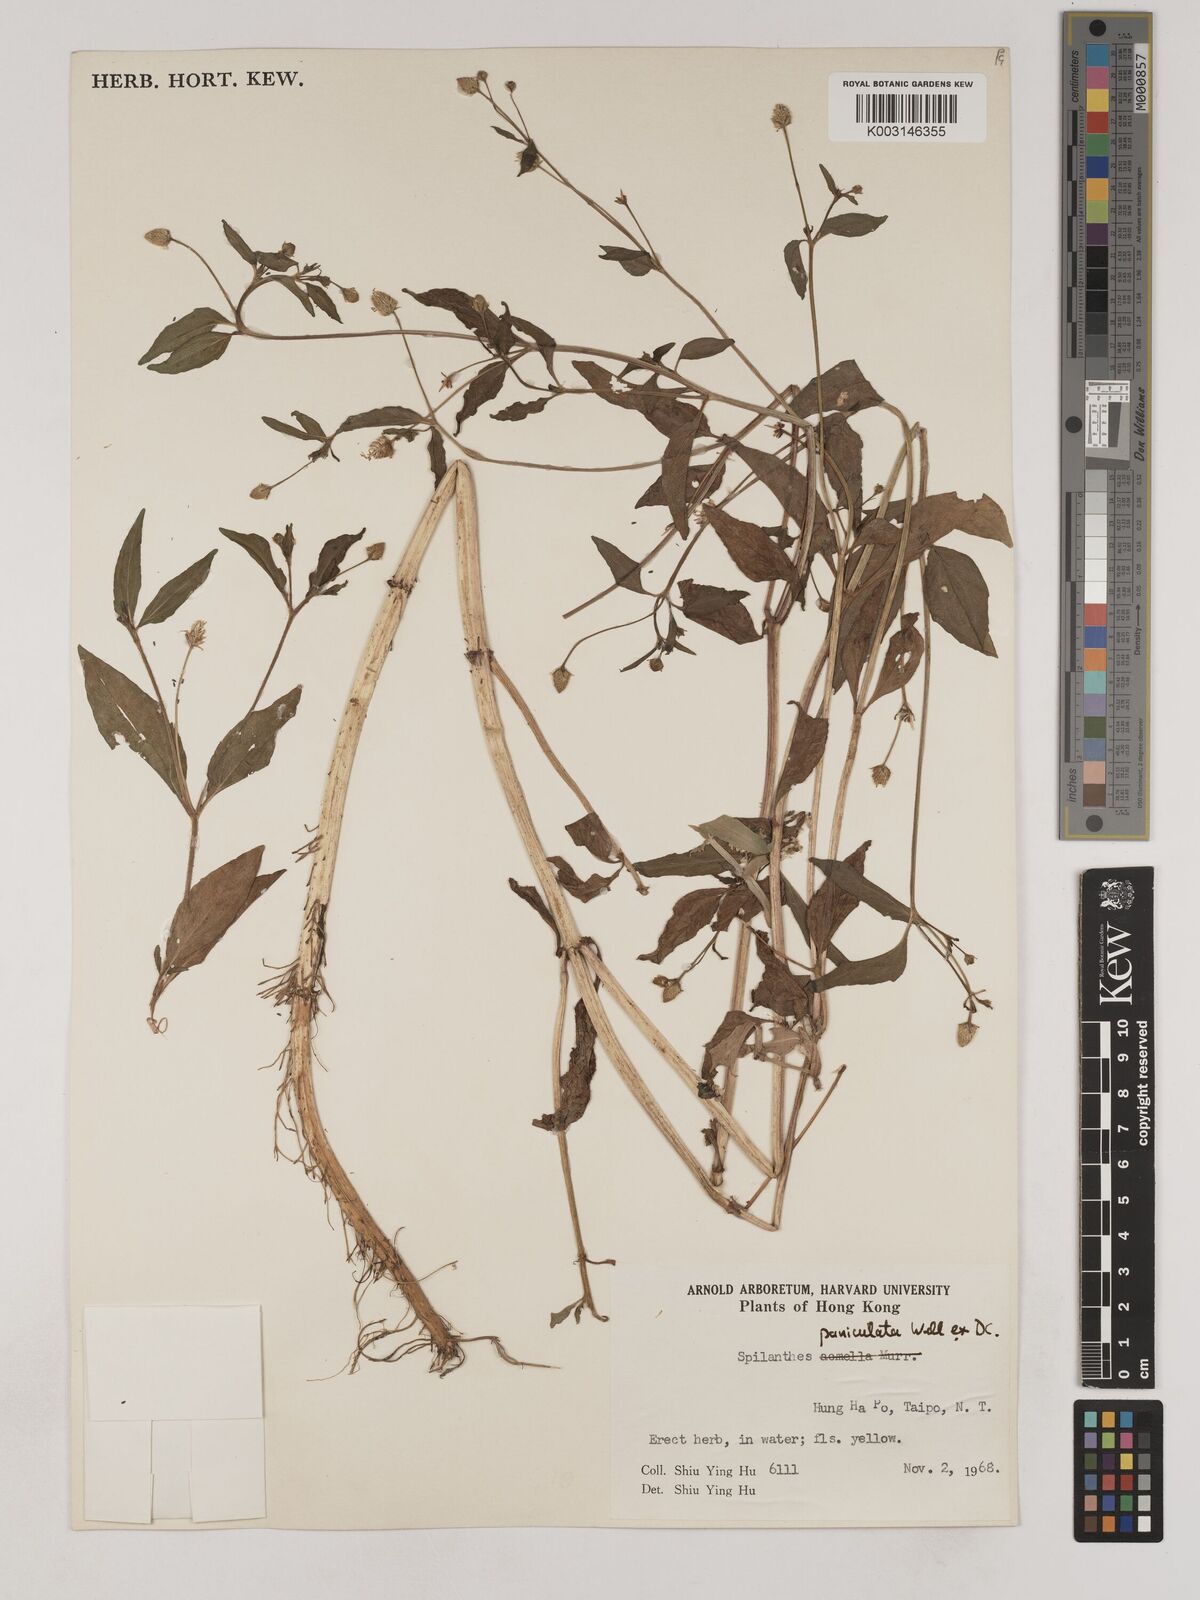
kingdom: Plantae
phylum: Tracheophyta
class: Magnoliopsida
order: Asterales
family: Asteraceae
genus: Acmella
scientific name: Acmella paniculata
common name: Panicled spot flower
